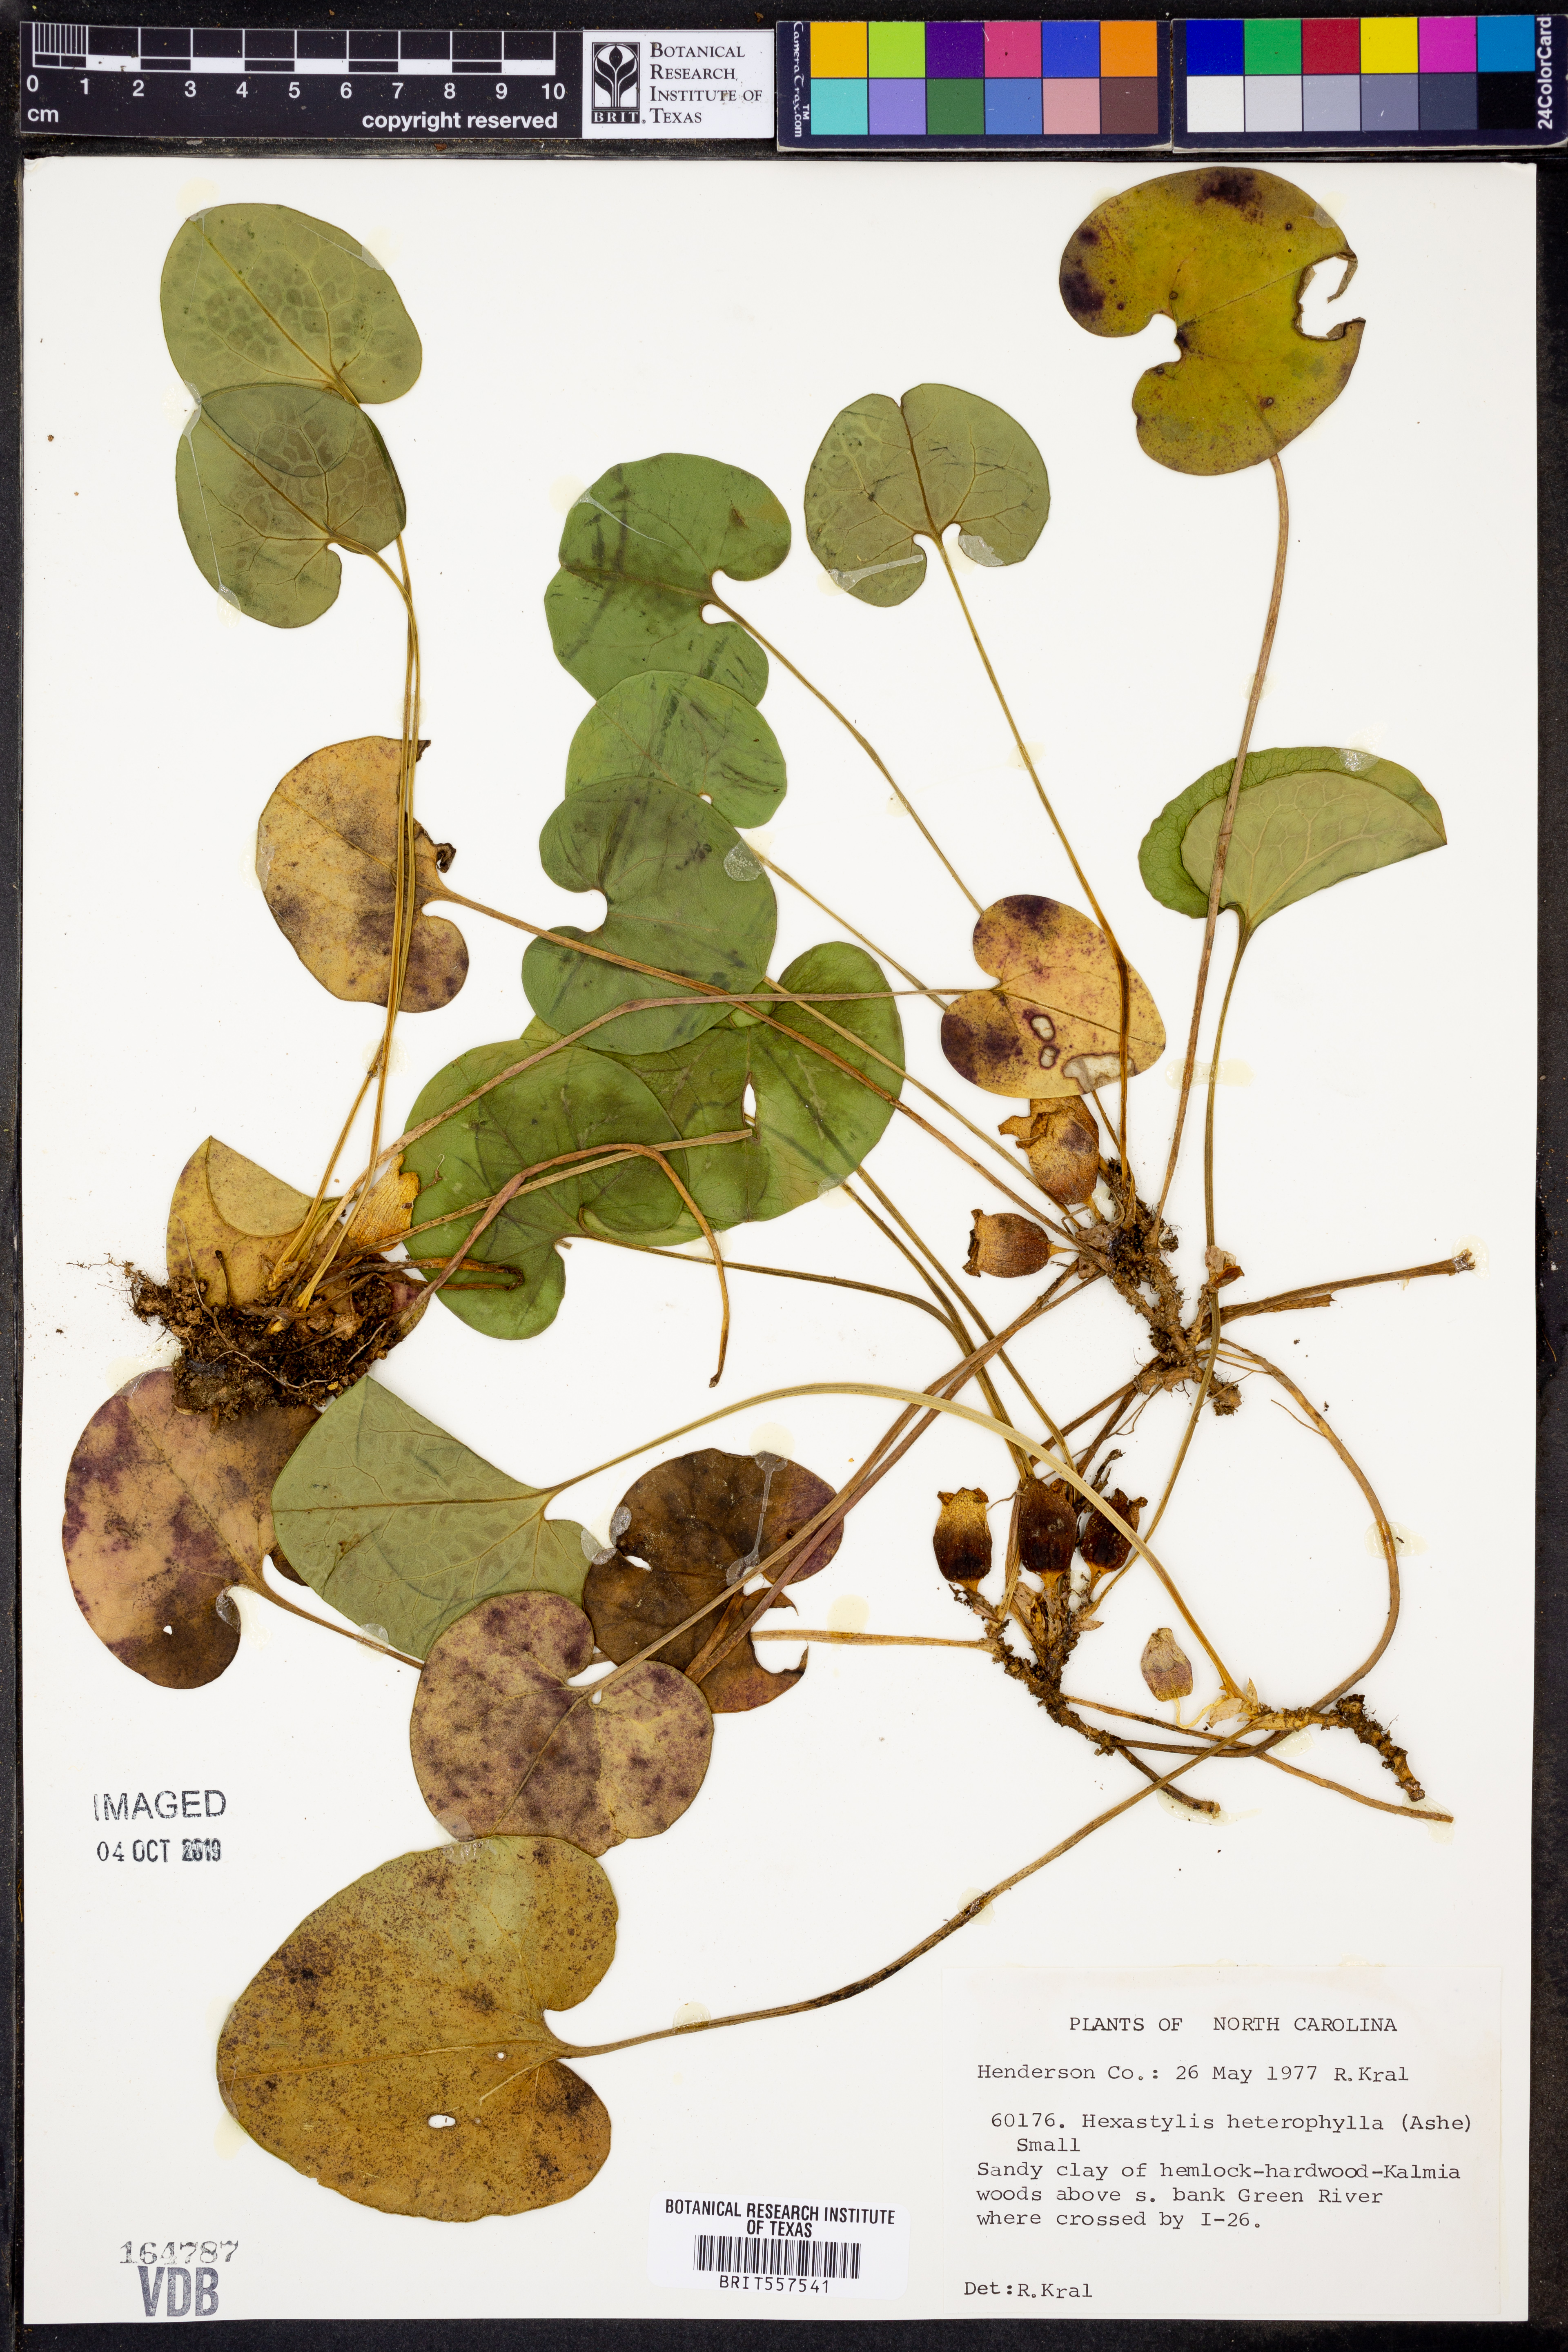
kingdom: Plantae
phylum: Tracheophyta
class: Magnoliopsida
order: Piperales
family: Aristolochiaceae
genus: Hexastylis
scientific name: Hexastylis heterophylla
